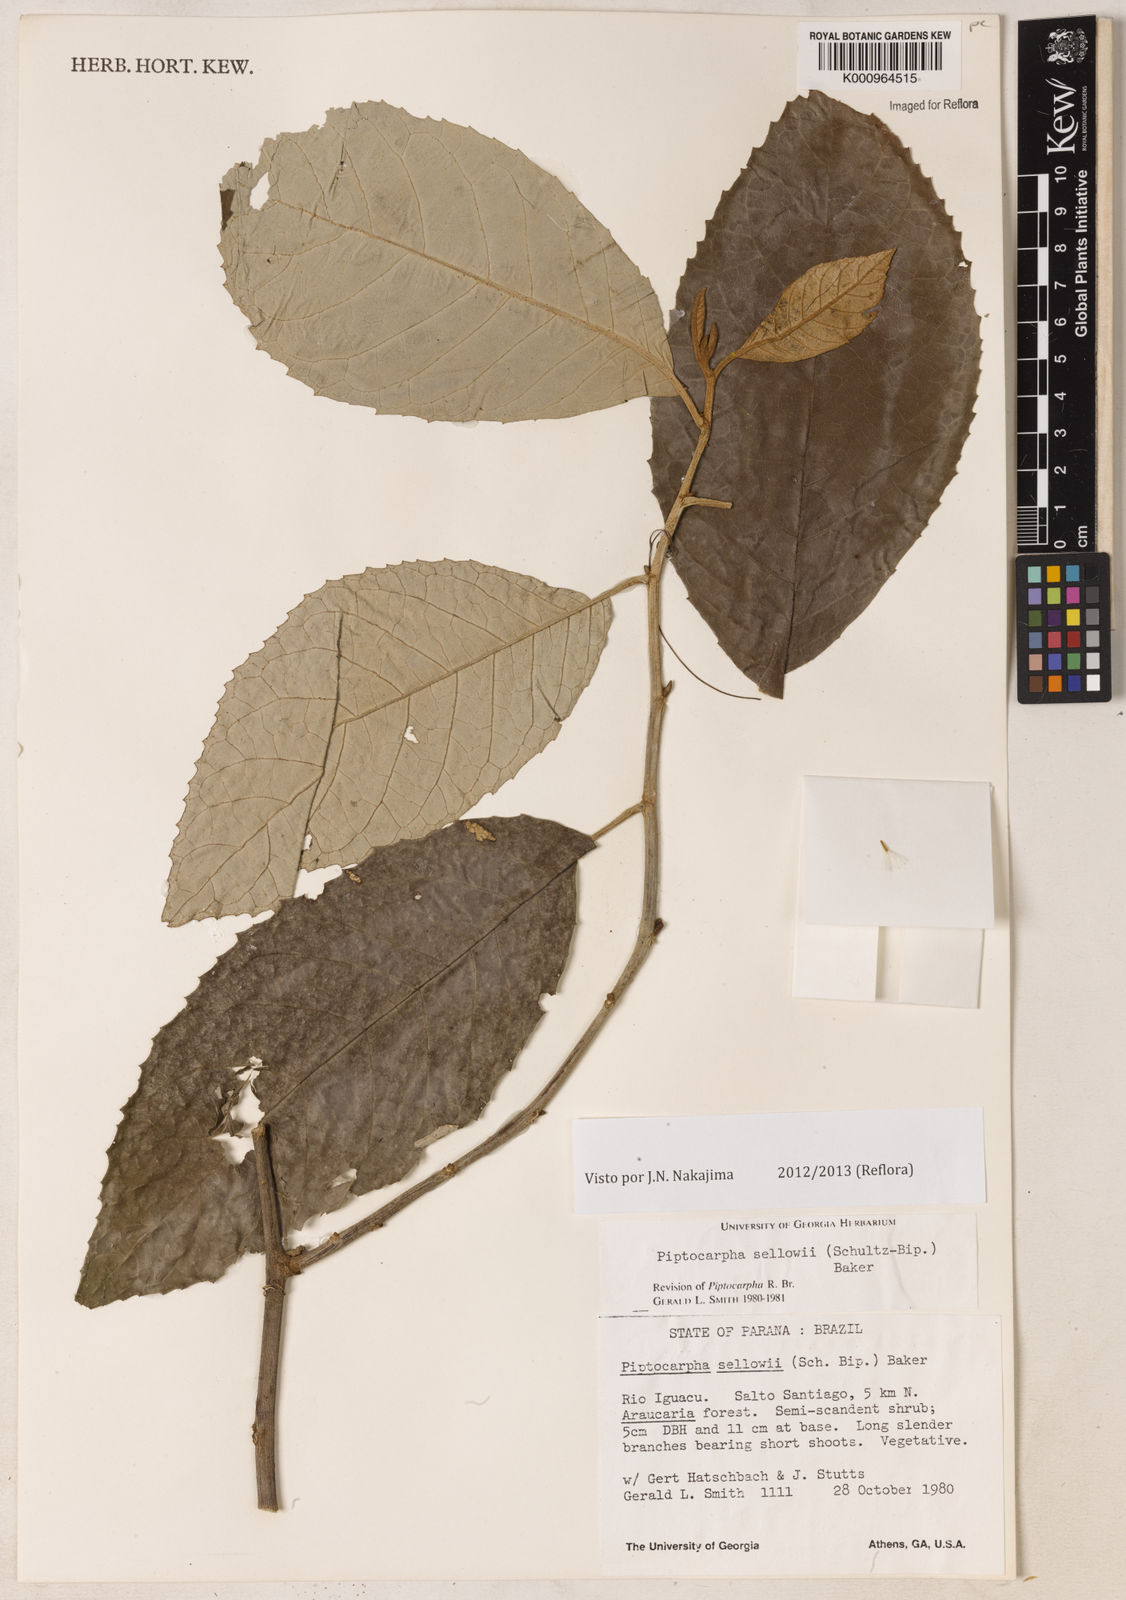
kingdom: Plantae
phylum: Tracheophyta
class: Magnoliopsida
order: Asterales
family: Asteraceae
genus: Piptocarpha
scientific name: Piptocarpha
